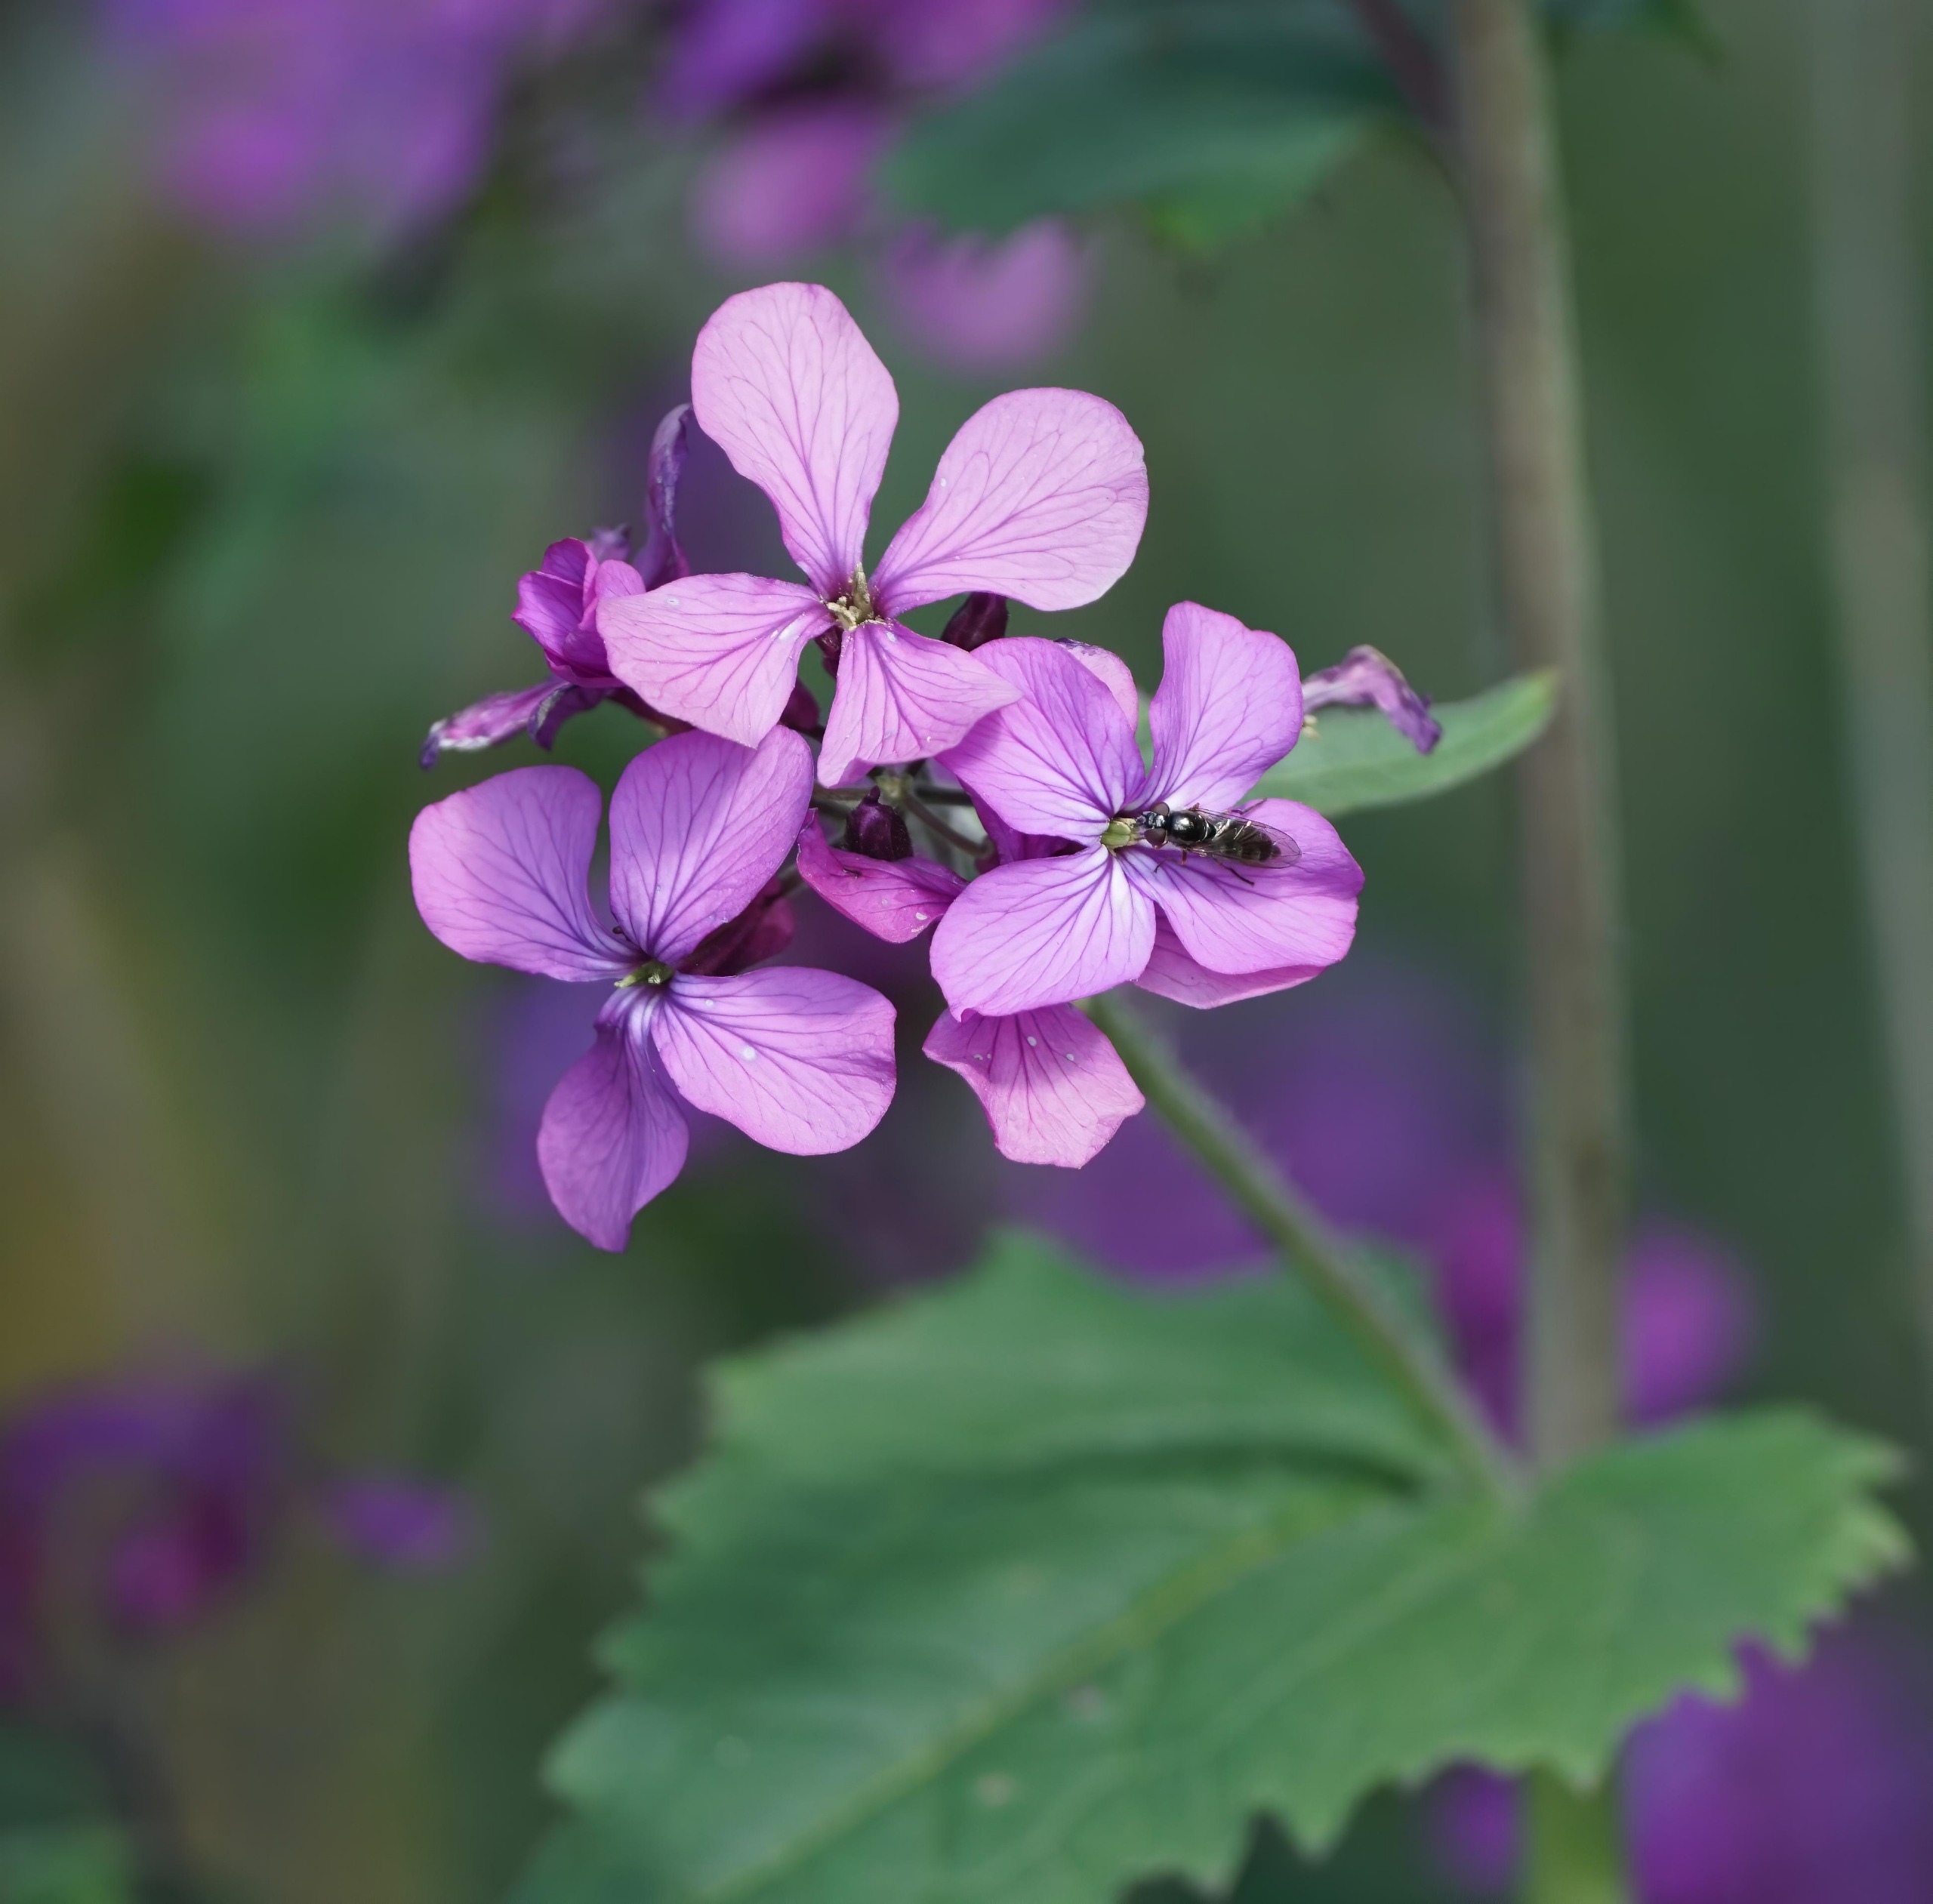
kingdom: Plantae
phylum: Tracheophyta
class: Magnoliopsida
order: Brassicales
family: Brassicaceae
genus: Lunaria
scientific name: Lunaria annua
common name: Judaspenge
